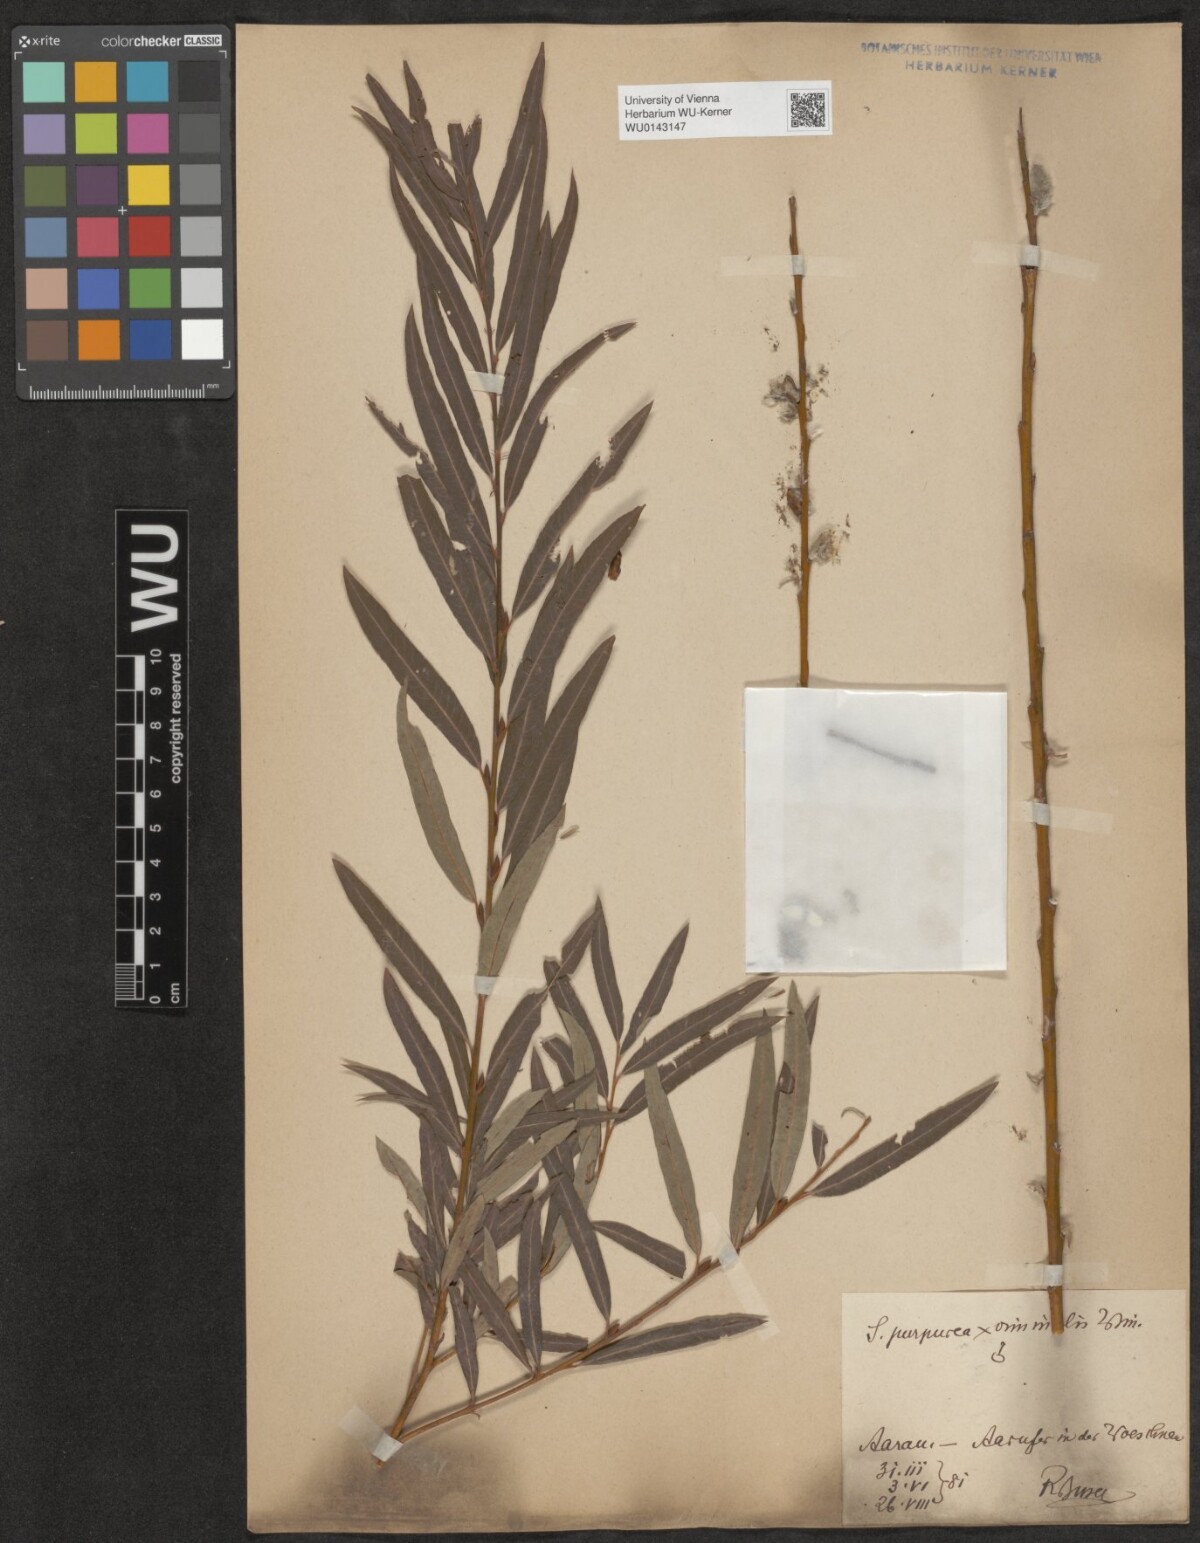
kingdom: Plantae
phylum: Tracheophyta
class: Magnoliopsida
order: Malpighiales
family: Salicaceae
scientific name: Salicaceae
